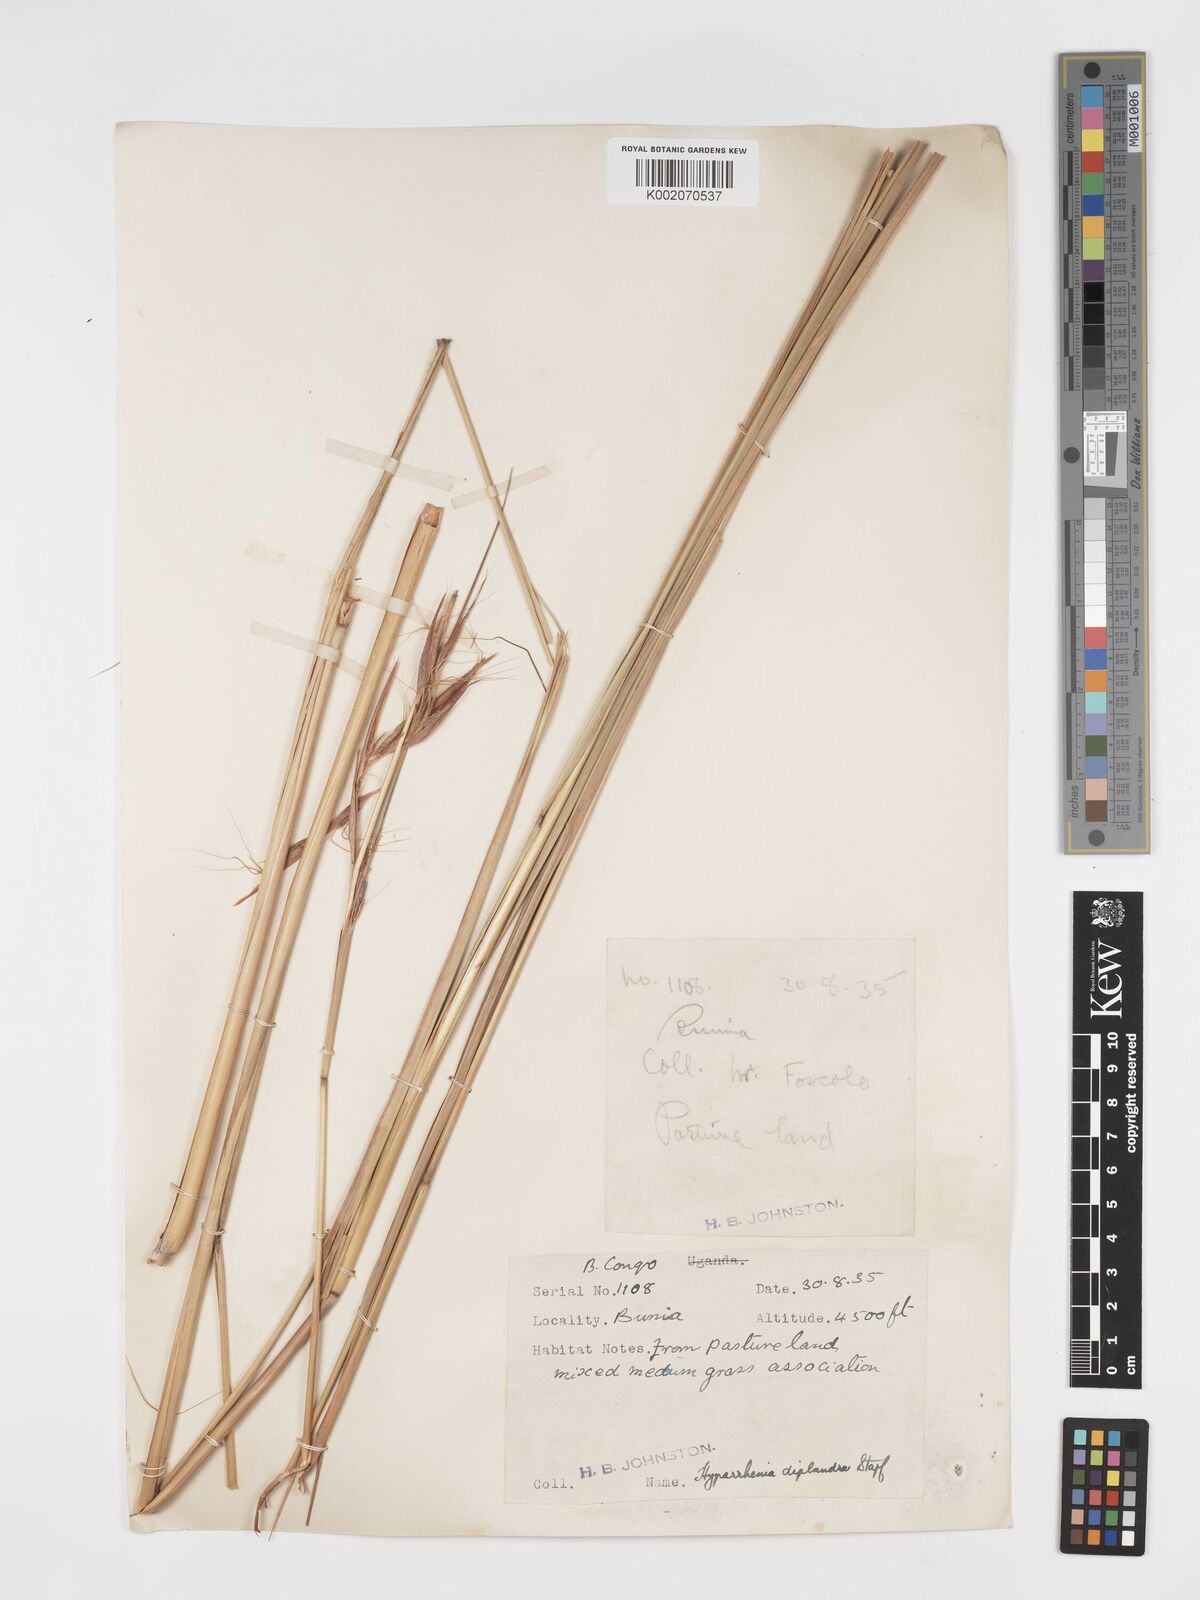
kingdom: Plantae
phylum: Tracheophyta
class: Liliopsida
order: Poales
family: Poaceae
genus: Hyparrhenia
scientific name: Hyparrhenia diplandra
